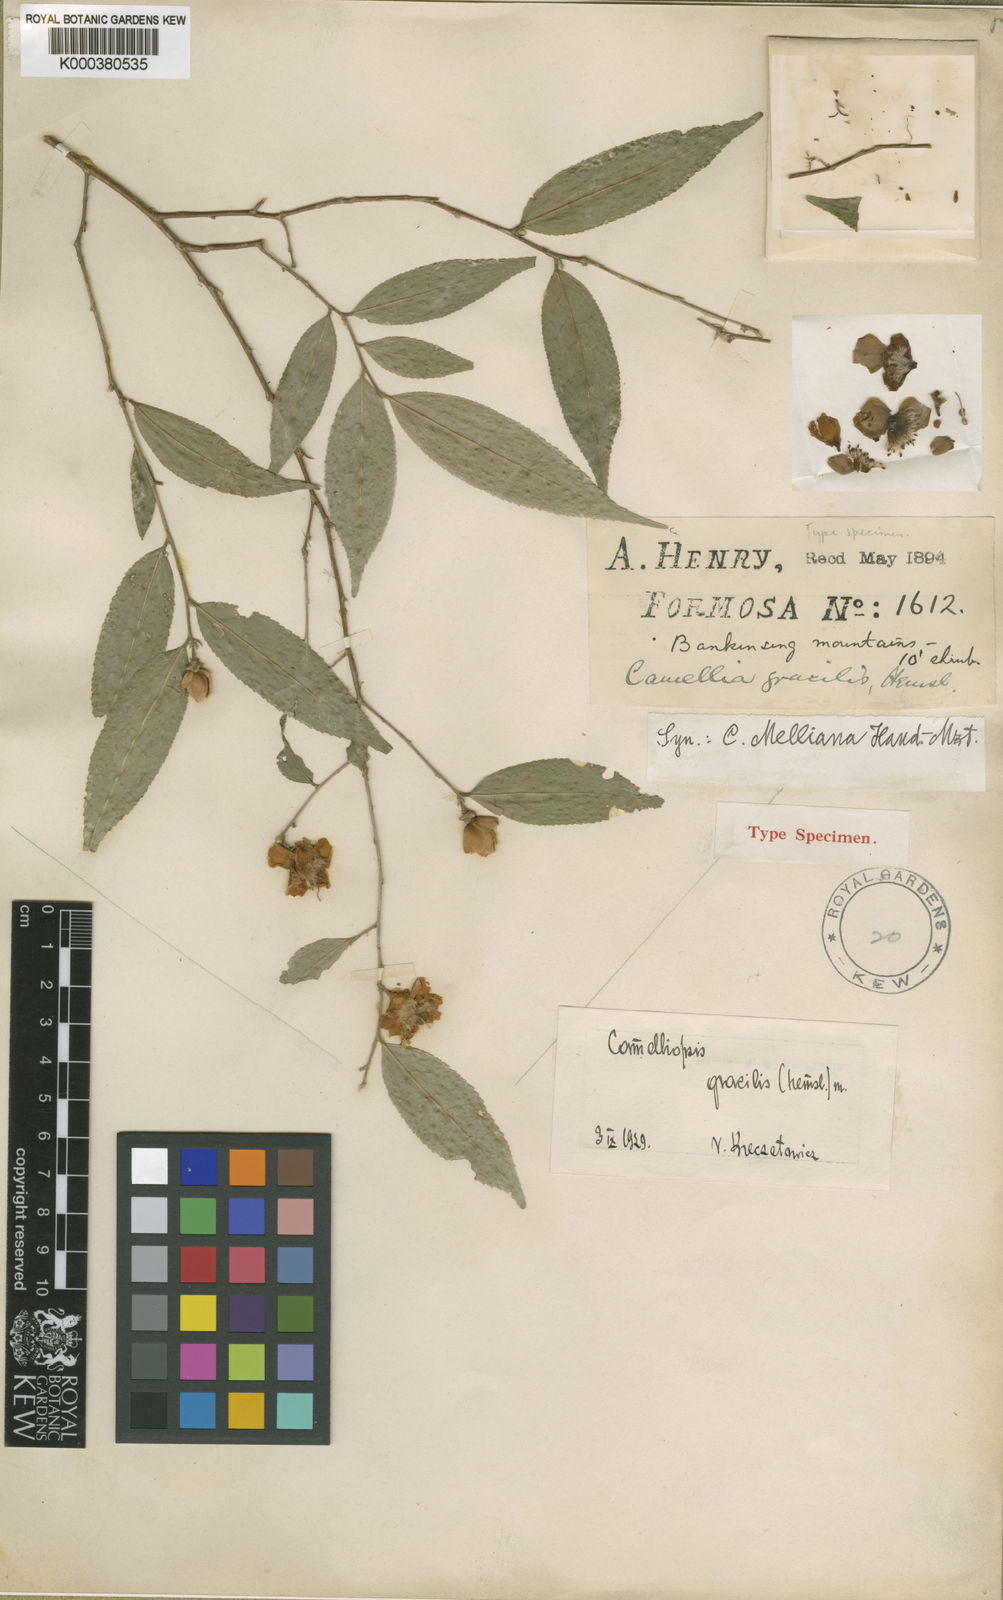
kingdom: Plantae
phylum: Tracheophyta
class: Magnoliopsida
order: Ericales
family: Theaceae
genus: Camellia
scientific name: Camellia caudata
